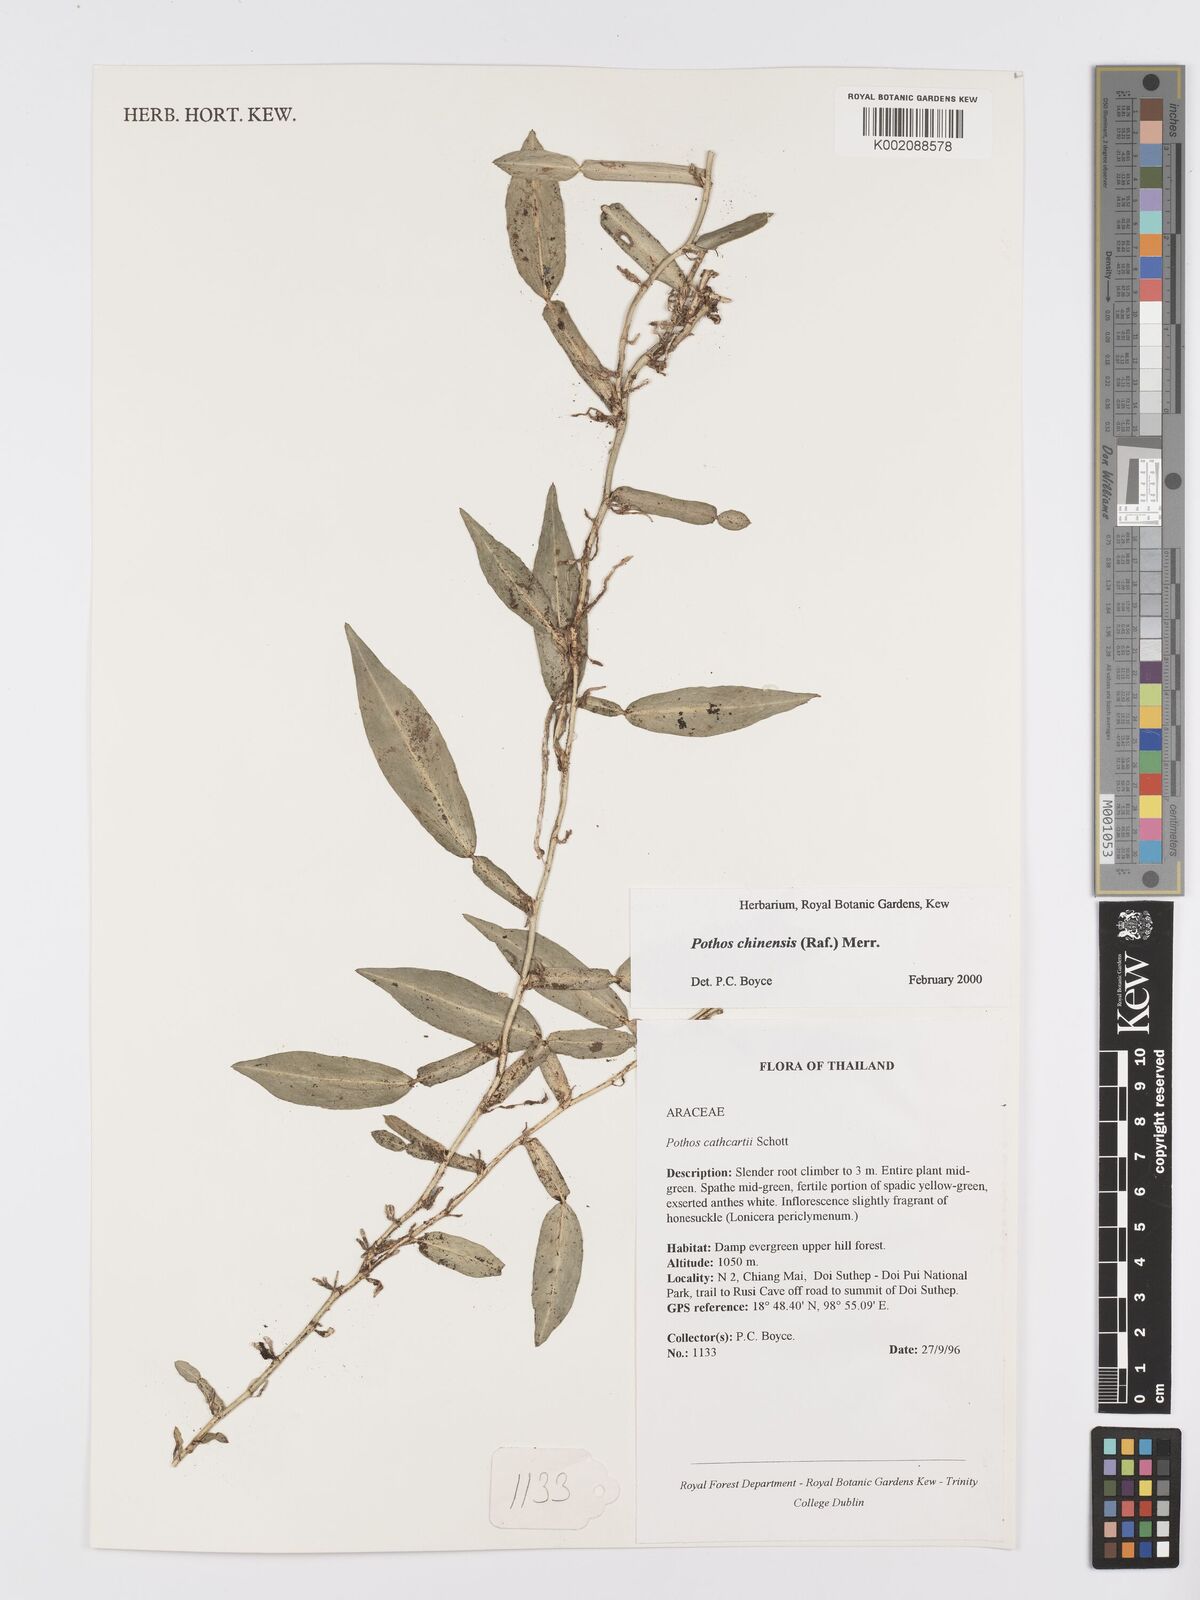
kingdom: Plantae
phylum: Tracheophyta
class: Liliopsida
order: Alismatales
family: Araceae
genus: Pothos
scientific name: Pothos chinensis
